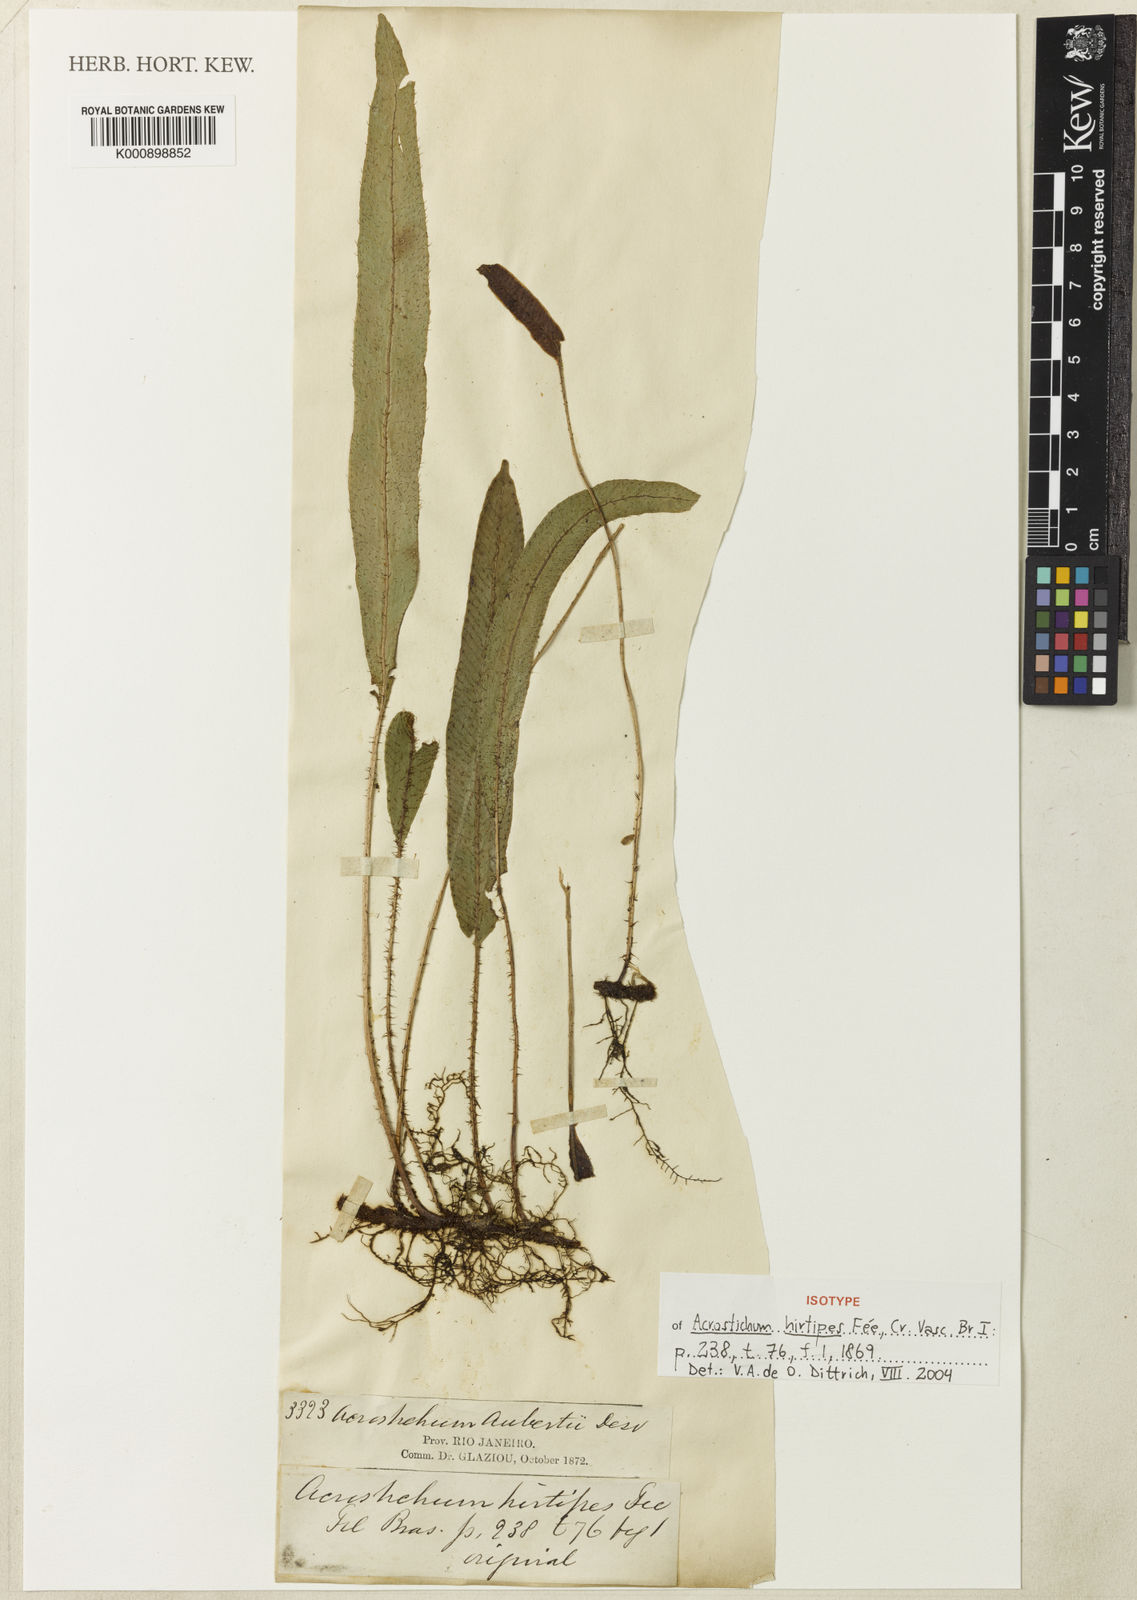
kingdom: Plantae
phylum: Tracheophyta
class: Polypodiopsida
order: Polypodiales
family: Dryopteridaceae
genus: Elaphoglossum
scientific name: Elaphoglossum
